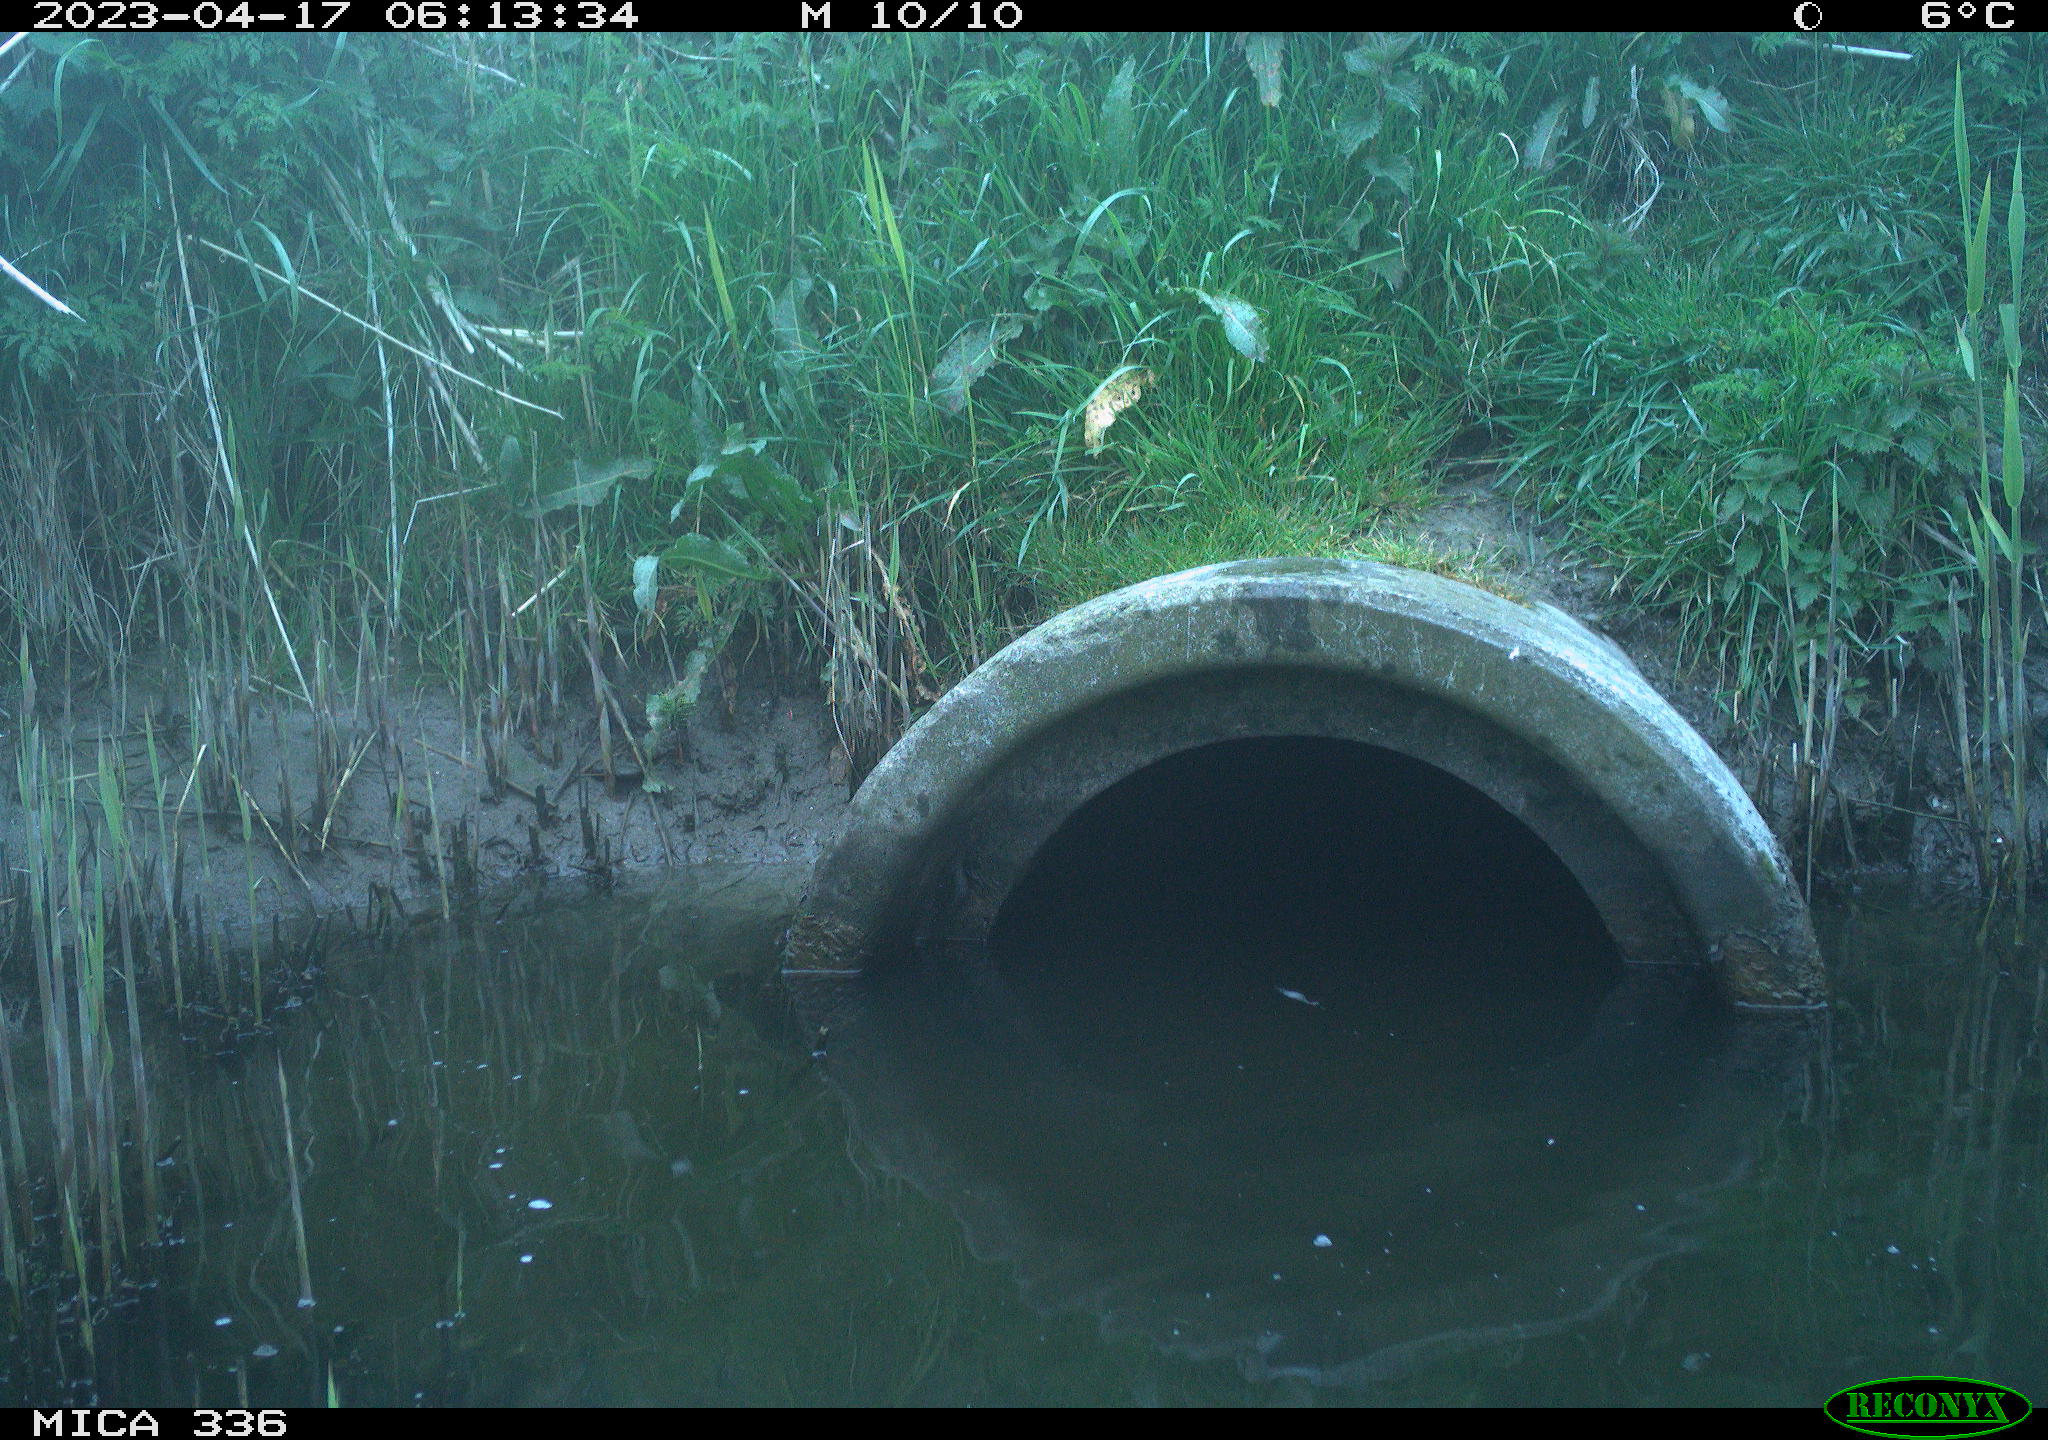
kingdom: Animalia
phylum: Chordata
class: Aves
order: Anseriformes
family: Anatidae
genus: Anas
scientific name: Anas
